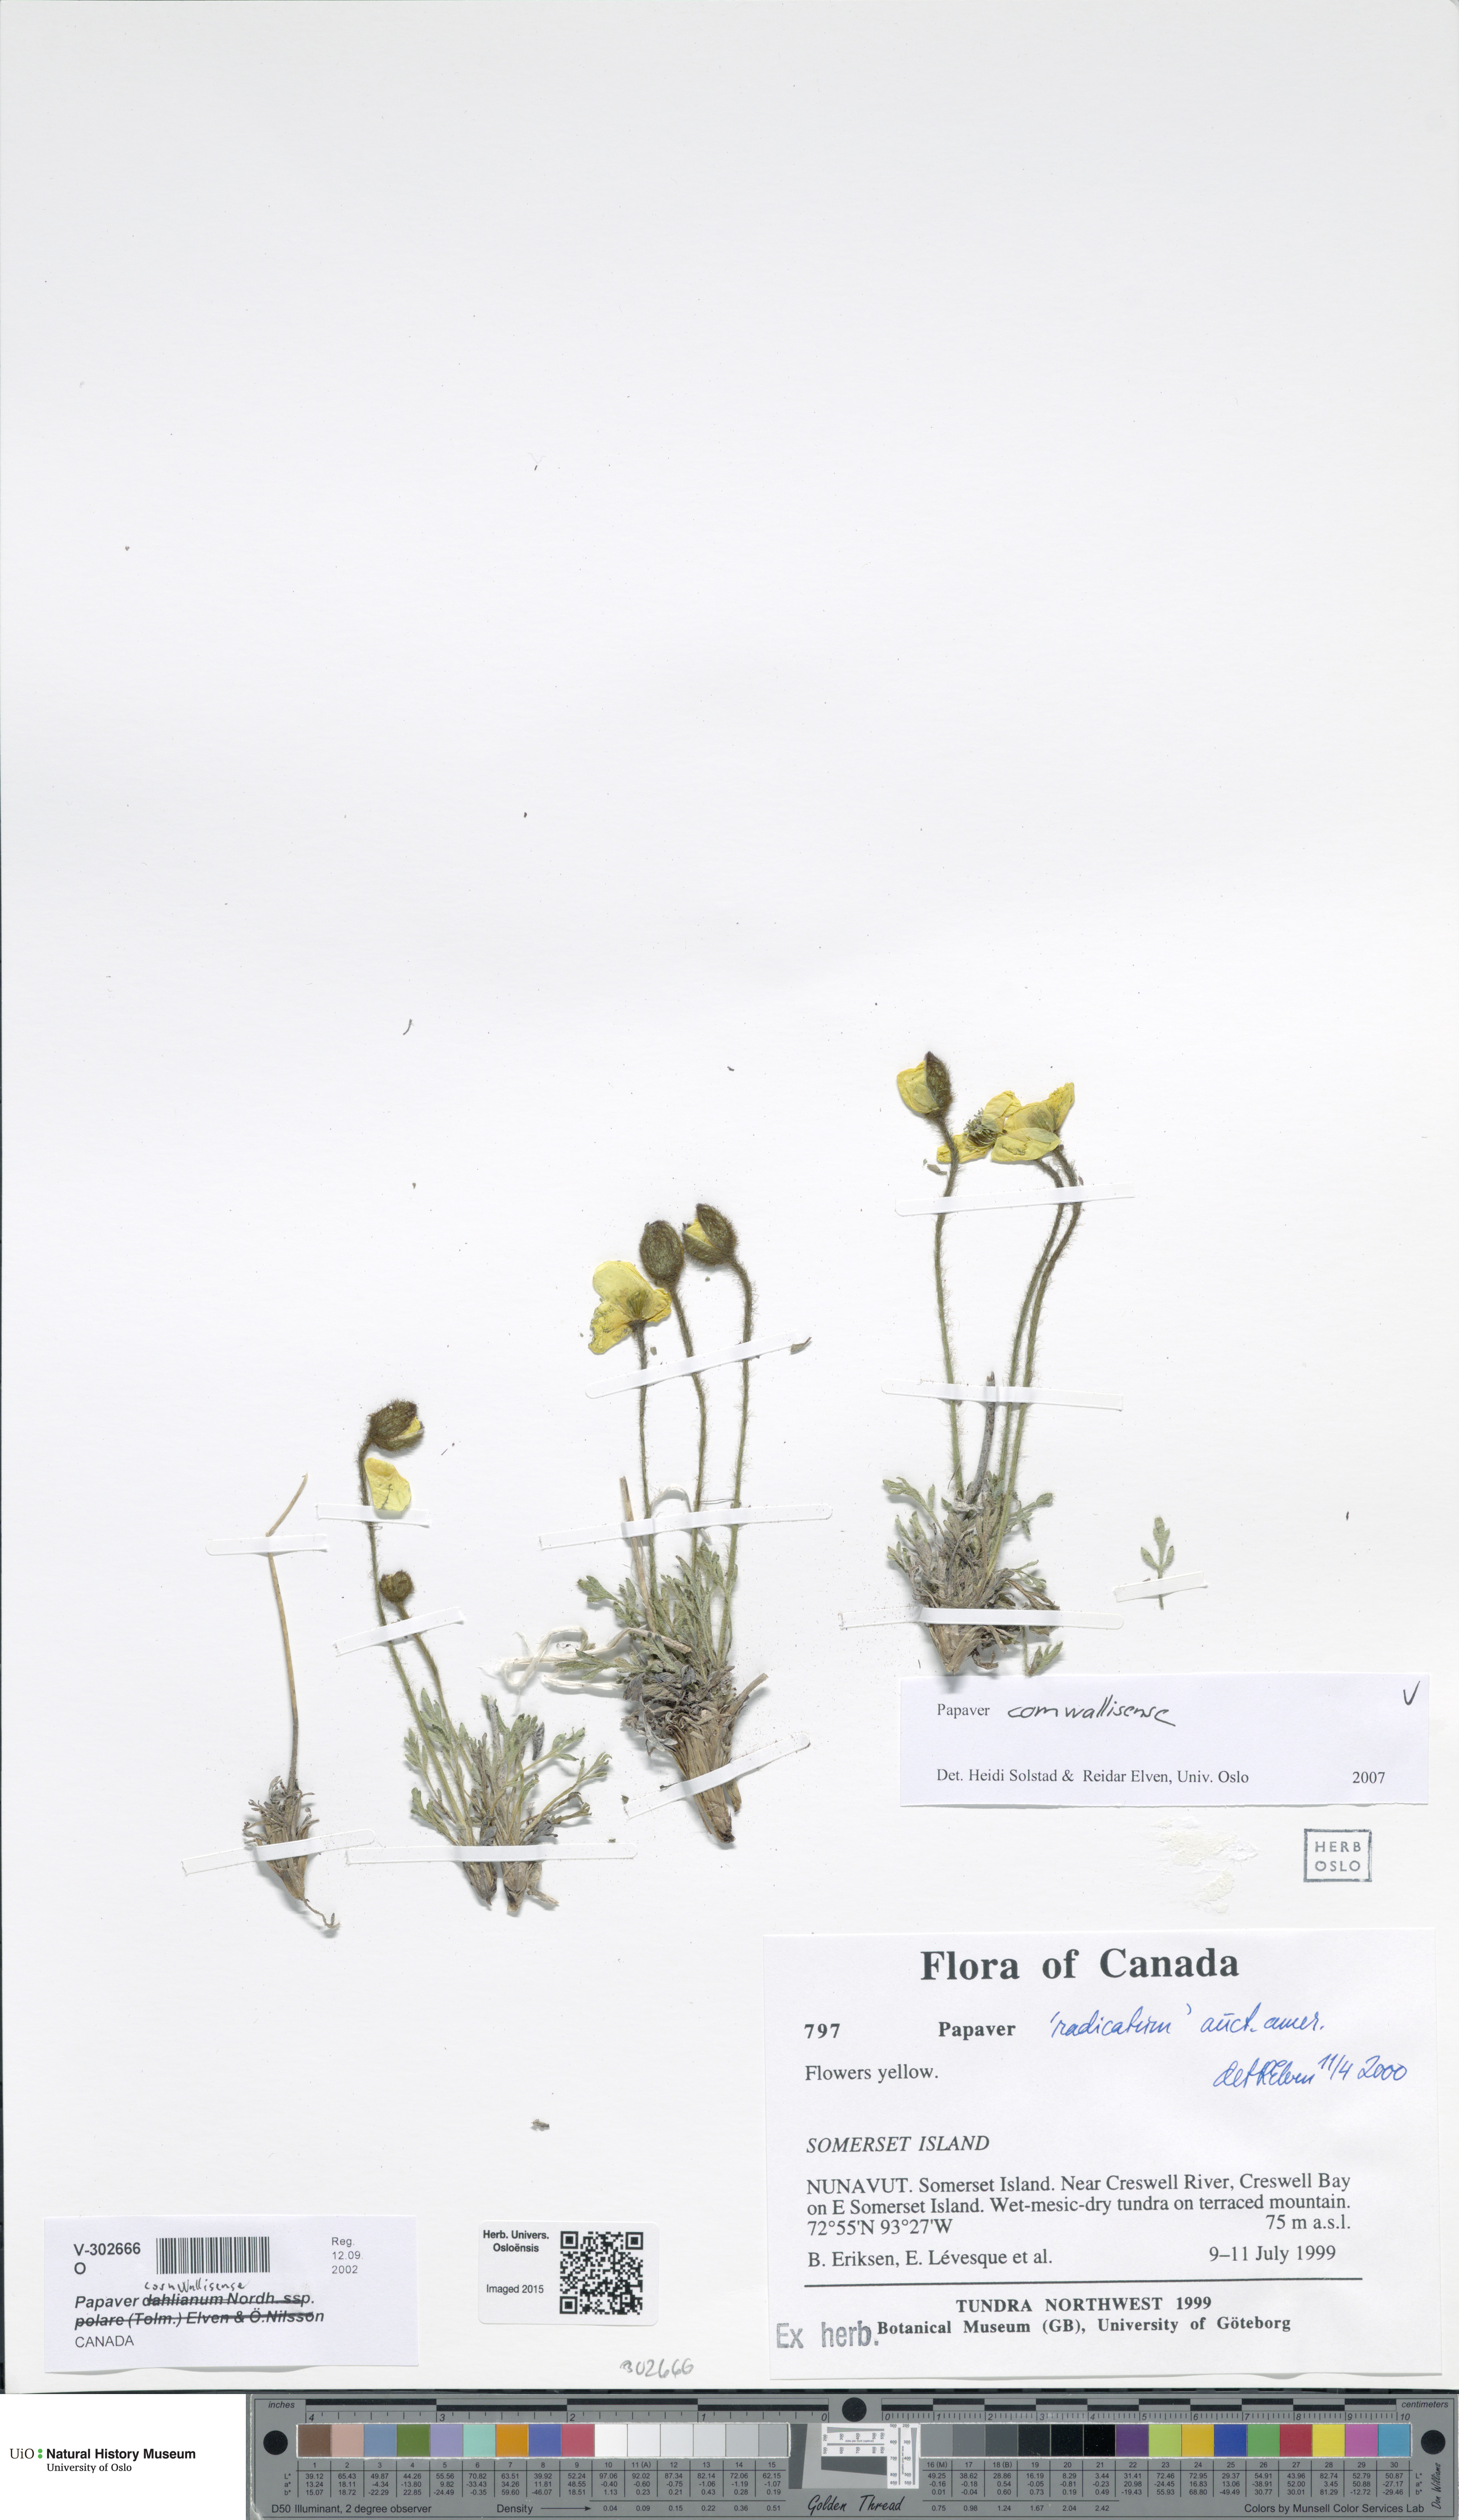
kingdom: Plantae
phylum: Tracheophyta
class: Magnoliopsida
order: Ranunculales
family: Papaveraceae
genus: Papaver
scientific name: Papaver radicatum
